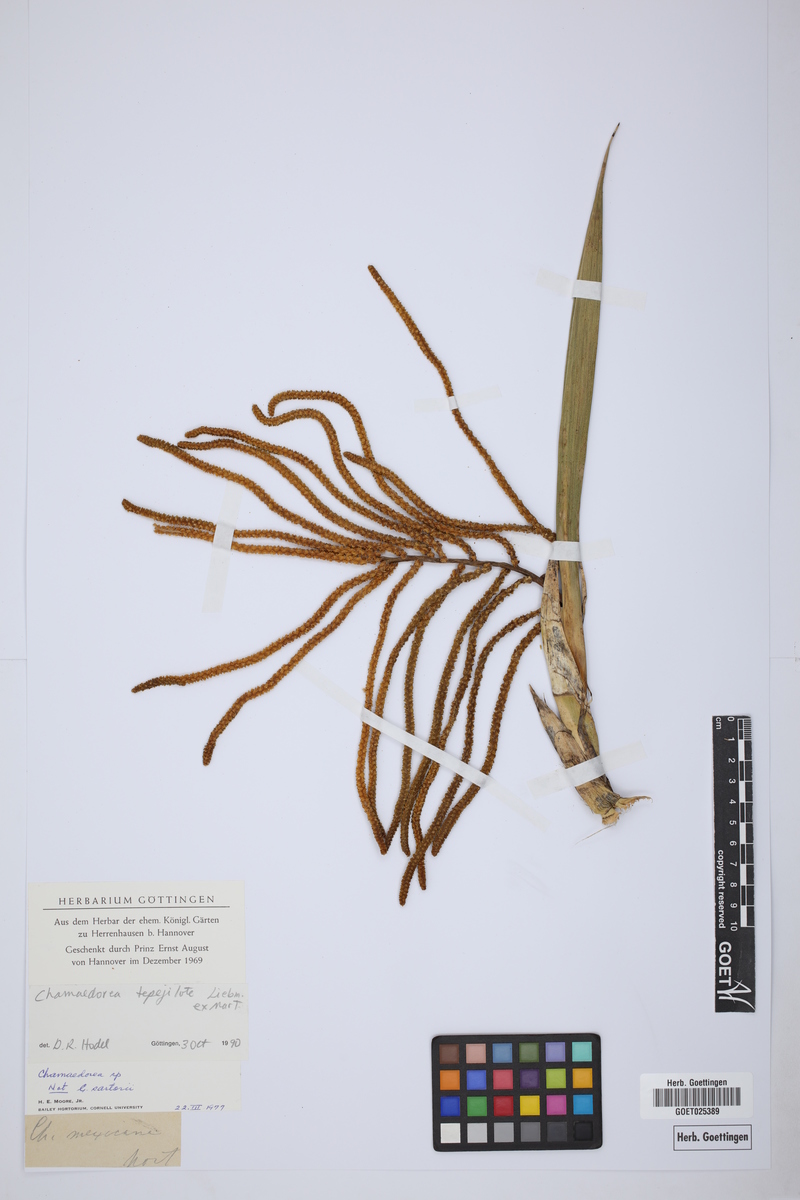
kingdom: Plantae
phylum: Tracheophyta
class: Liliopsida
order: Arecales
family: Arecaceae
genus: Chamaedorea
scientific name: Chamaedorea tepejilote
